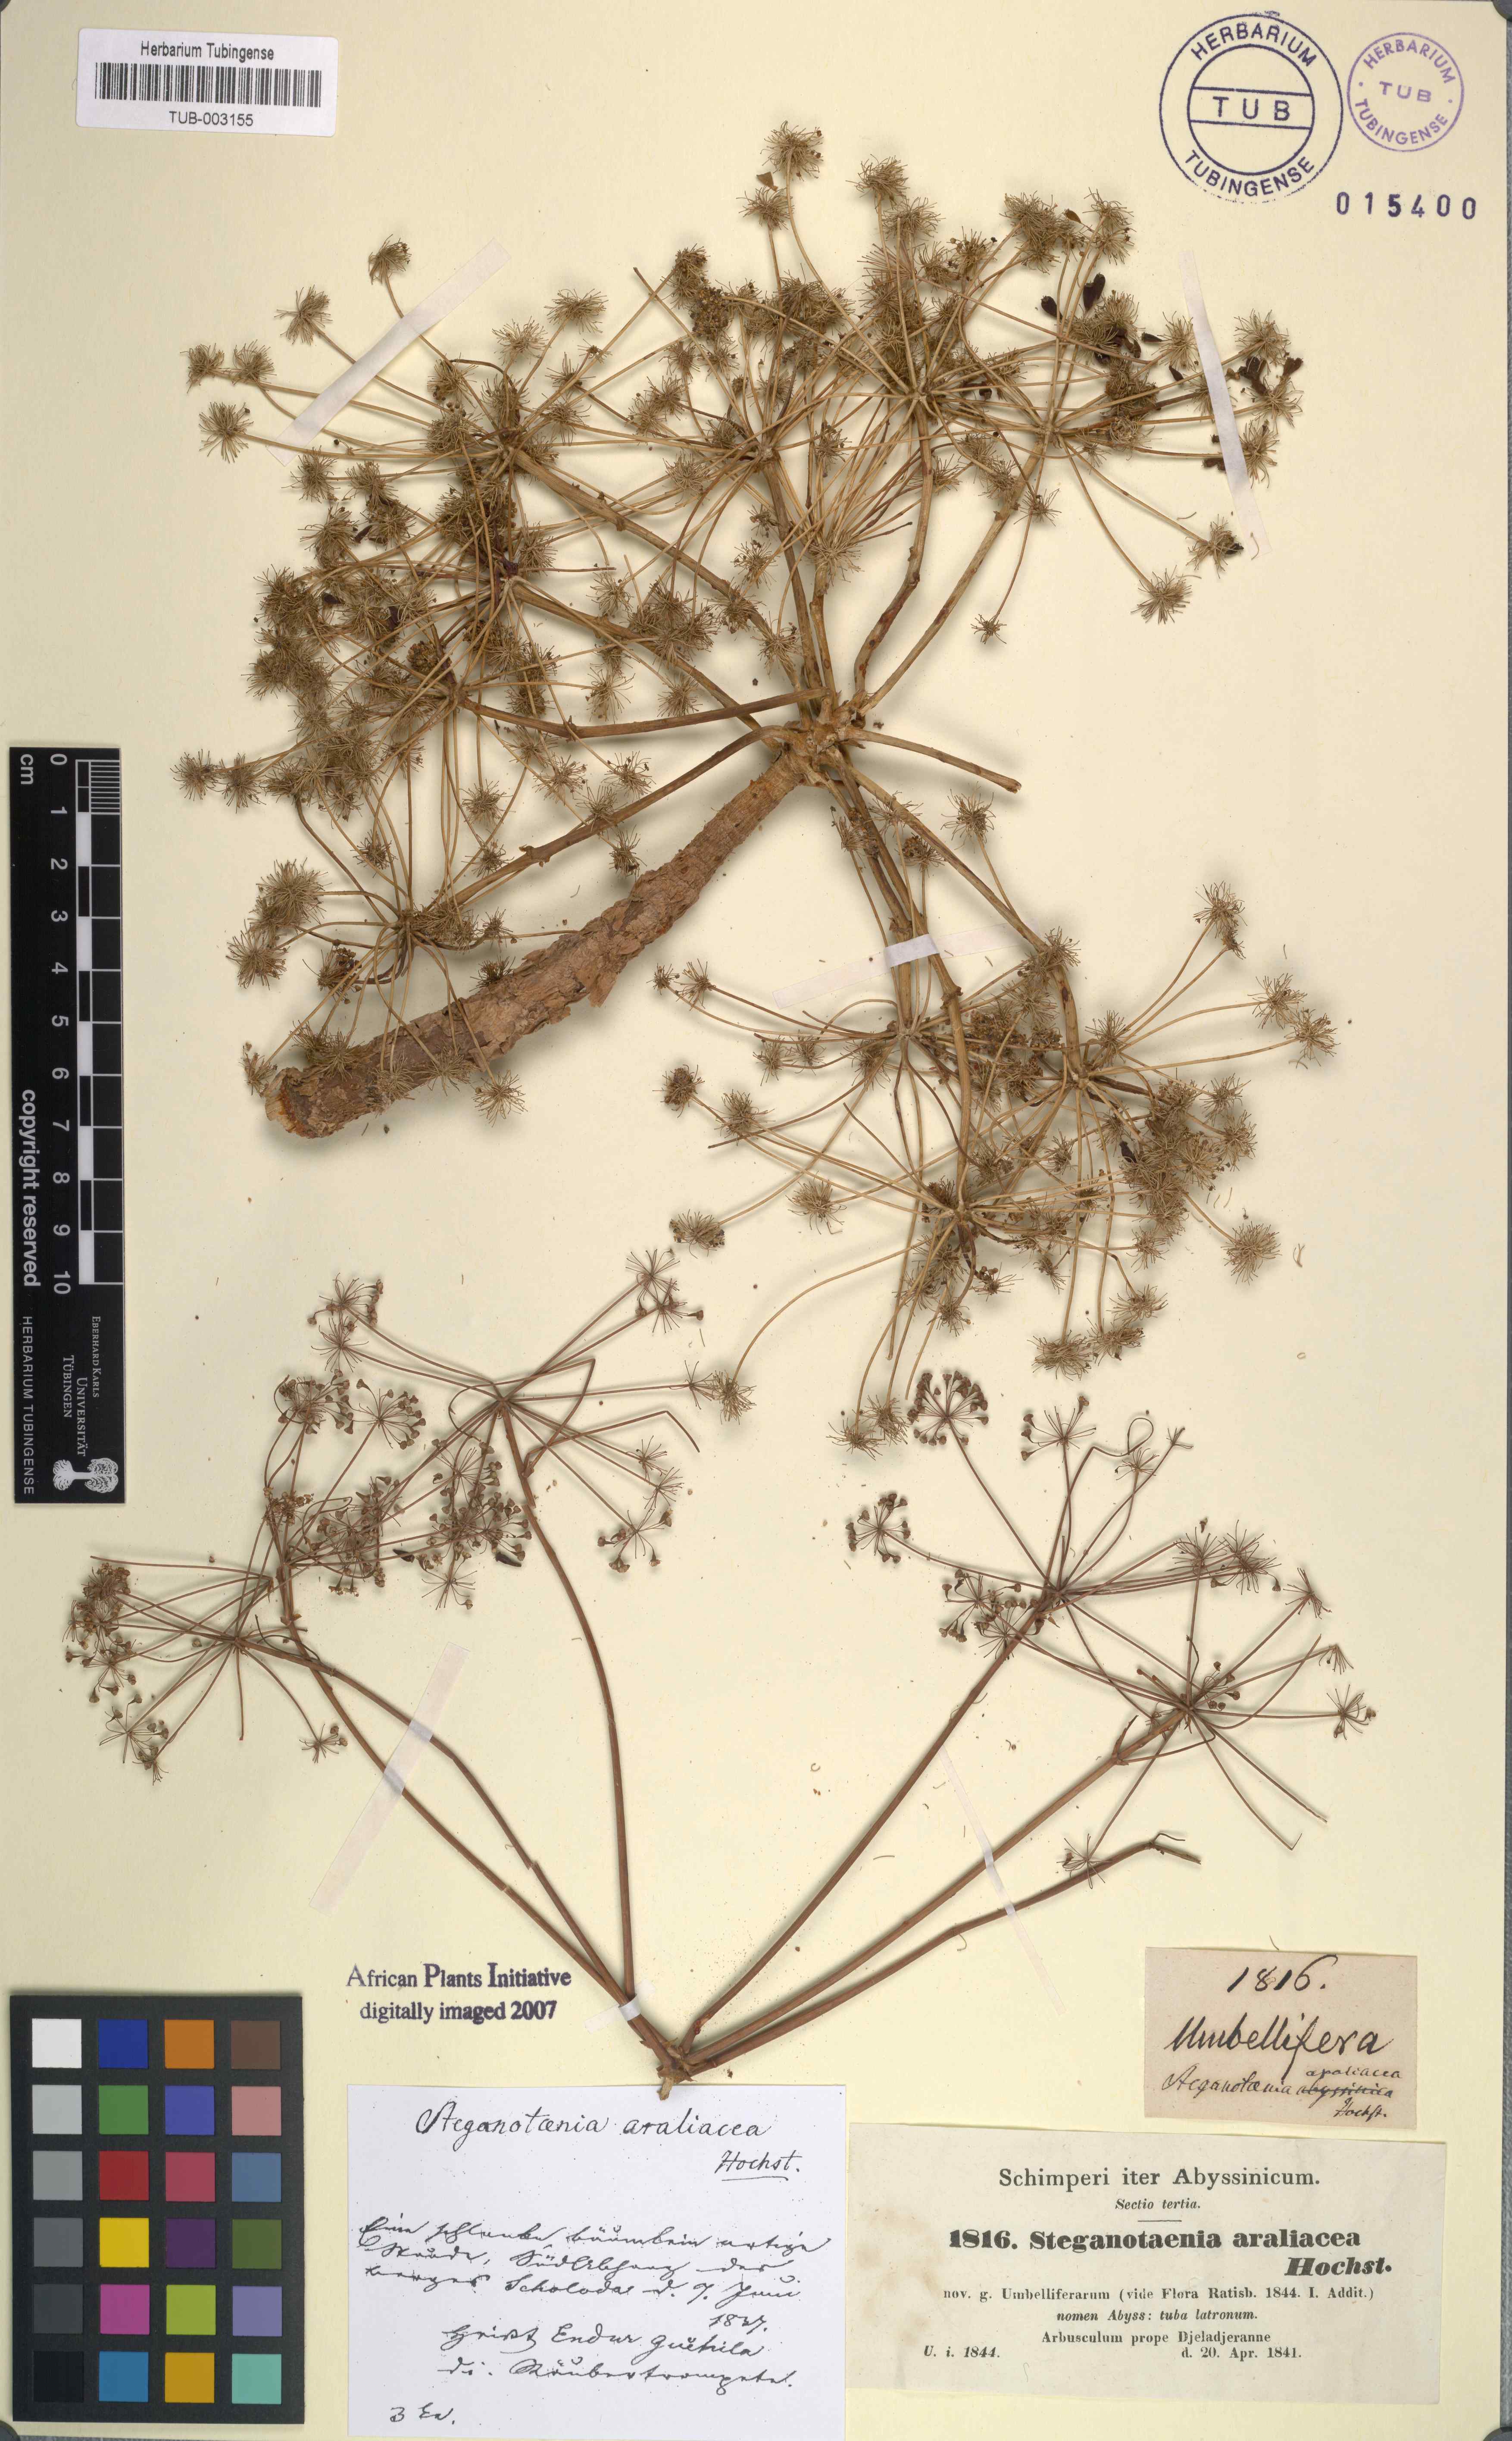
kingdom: Plantae
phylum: Tracheophyta
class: Magnoliopsida
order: Apiales
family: Apiaceae
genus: Steganotaenia
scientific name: Steganotaenia araliacea
